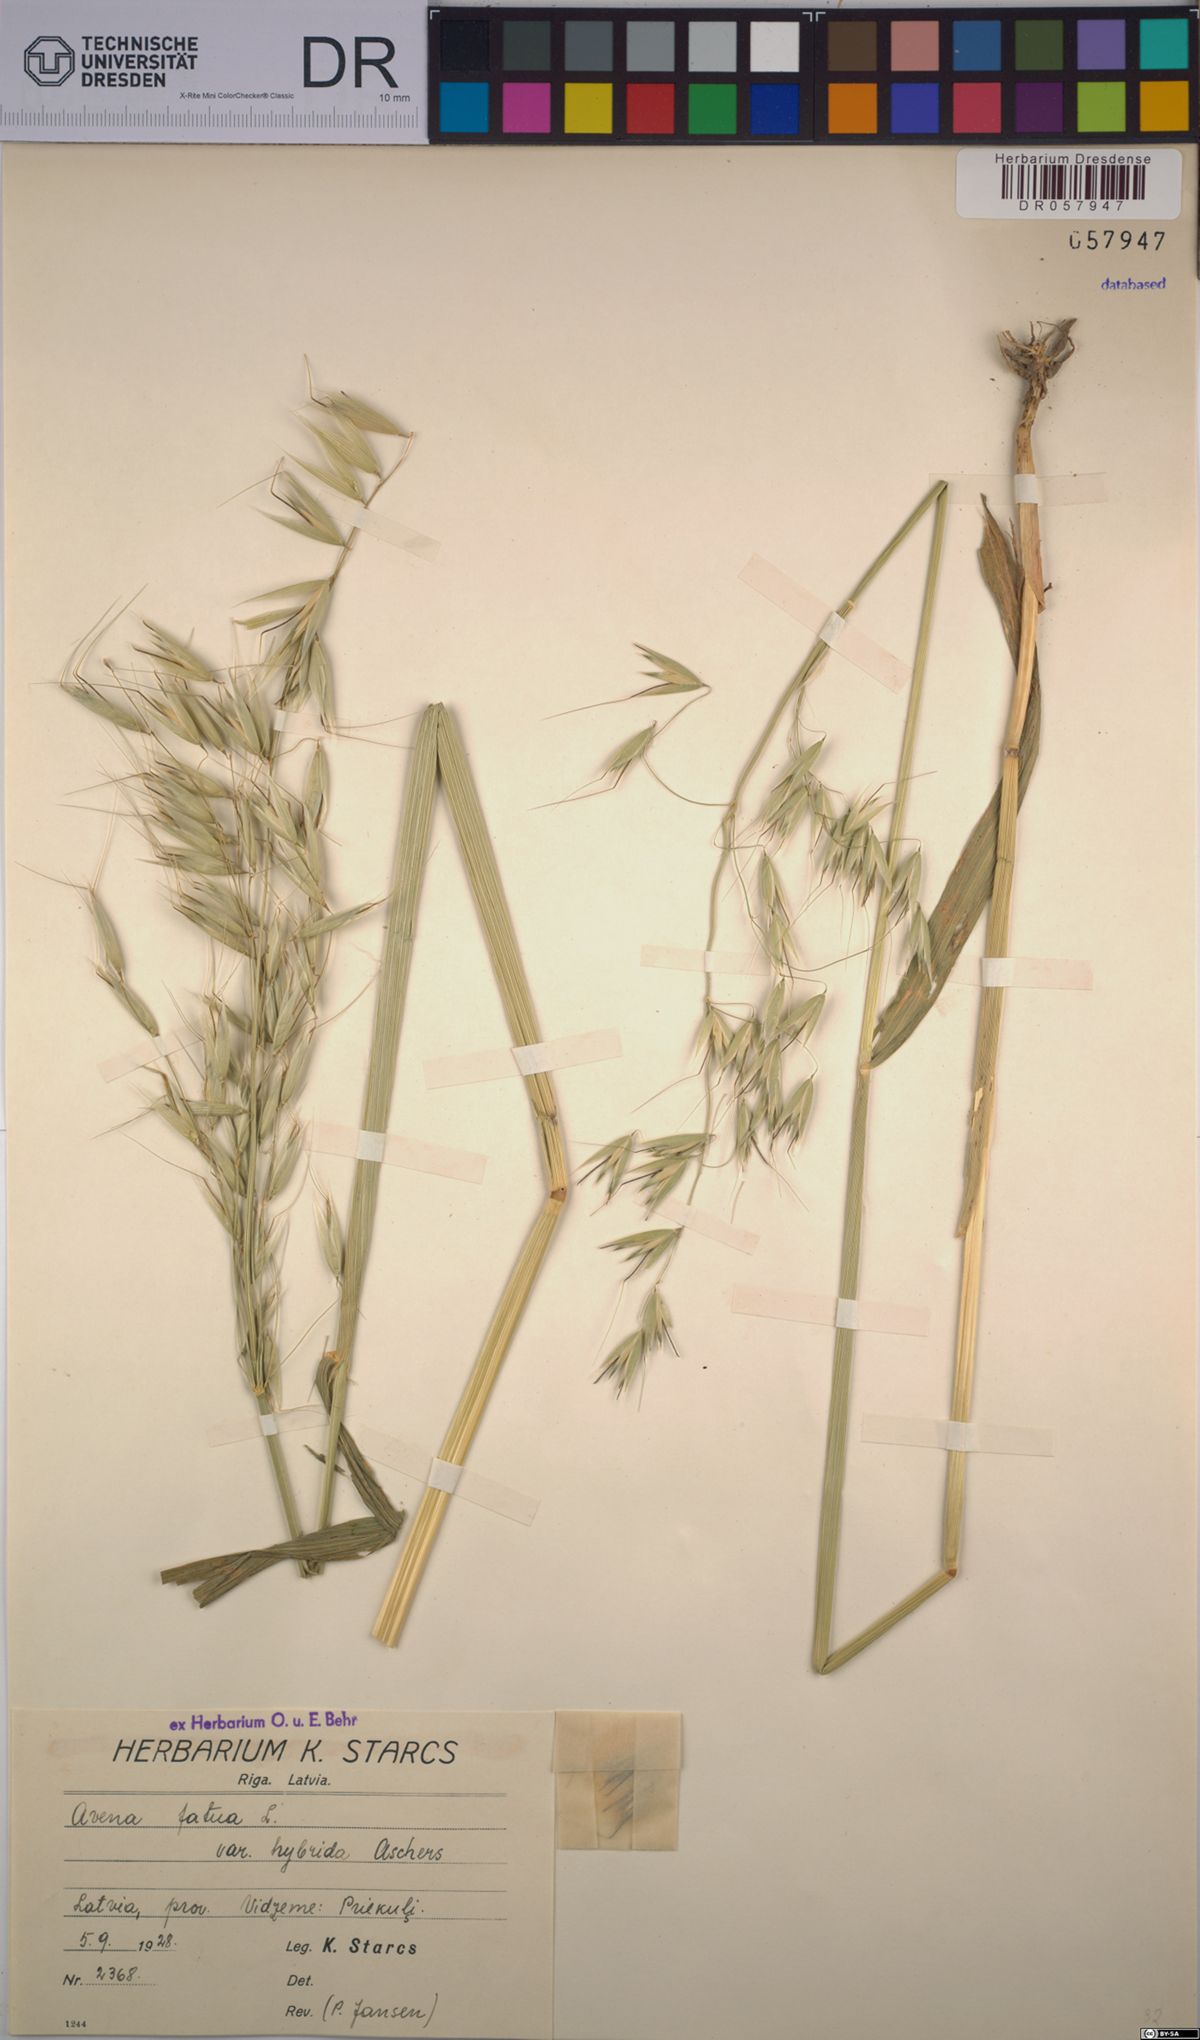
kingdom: Plantae
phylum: Tracheophyta
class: Liliopsida
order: Poales
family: Poaceae
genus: Avena
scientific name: Avena fatua
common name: Wild oat
